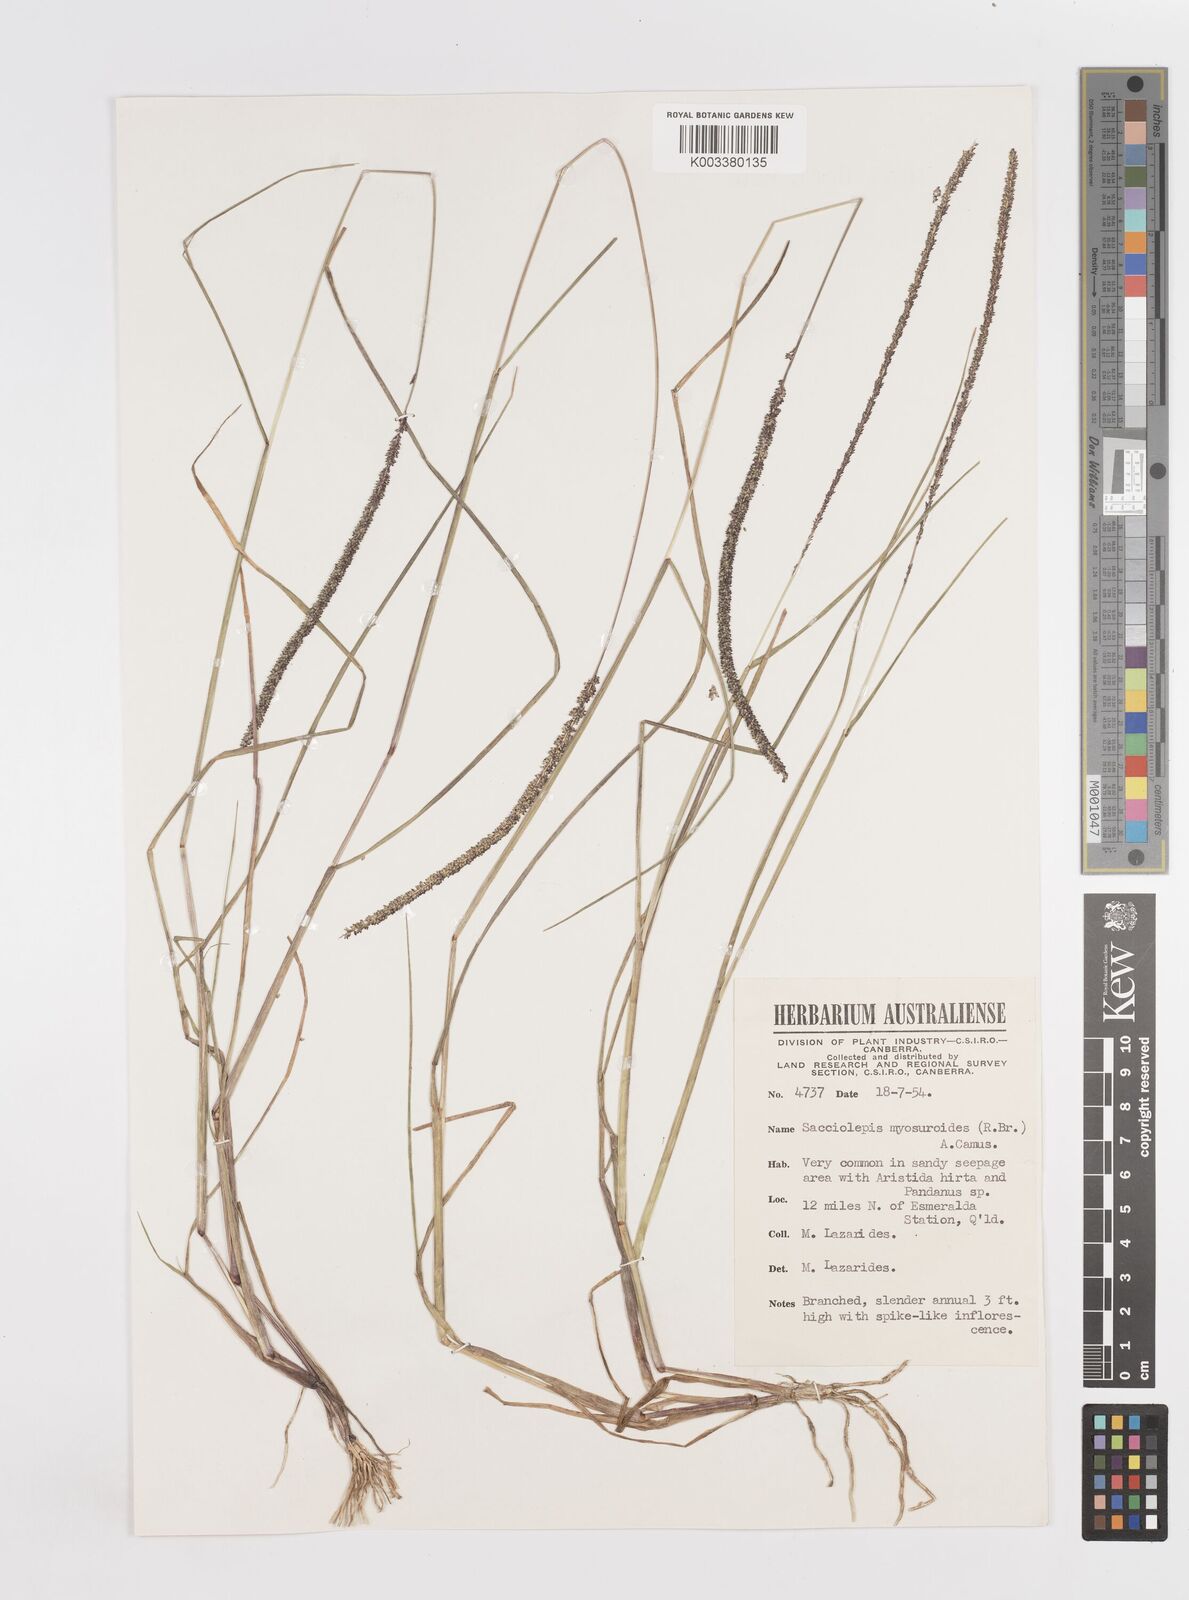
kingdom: Plantae
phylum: Tracheophyta
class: Liliopsida
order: Poales
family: Poaceae
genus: Sacciolepis
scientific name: Sacciolepis myosuroides
